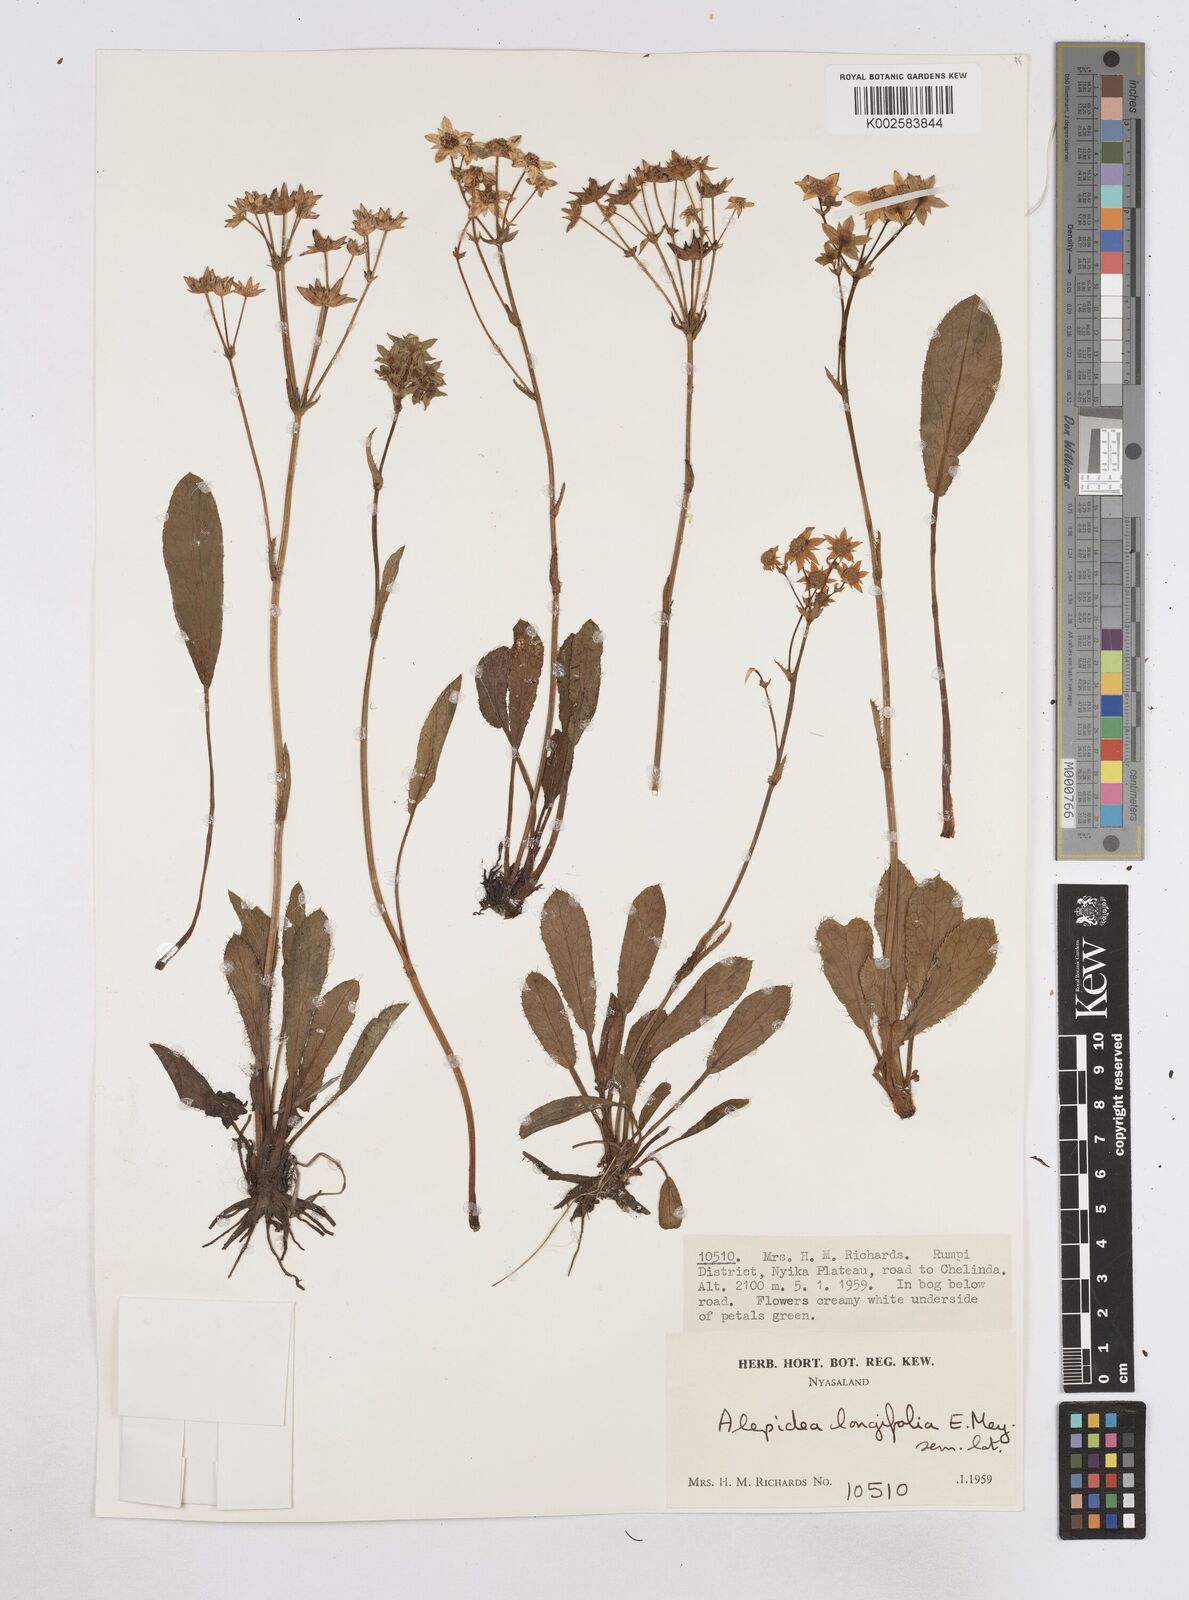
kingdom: Plantae
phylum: Tracheophyta
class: Magnoliopsida
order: Apiales
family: Apiaceae
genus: Alepidea
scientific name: Alepidea peduncularis
